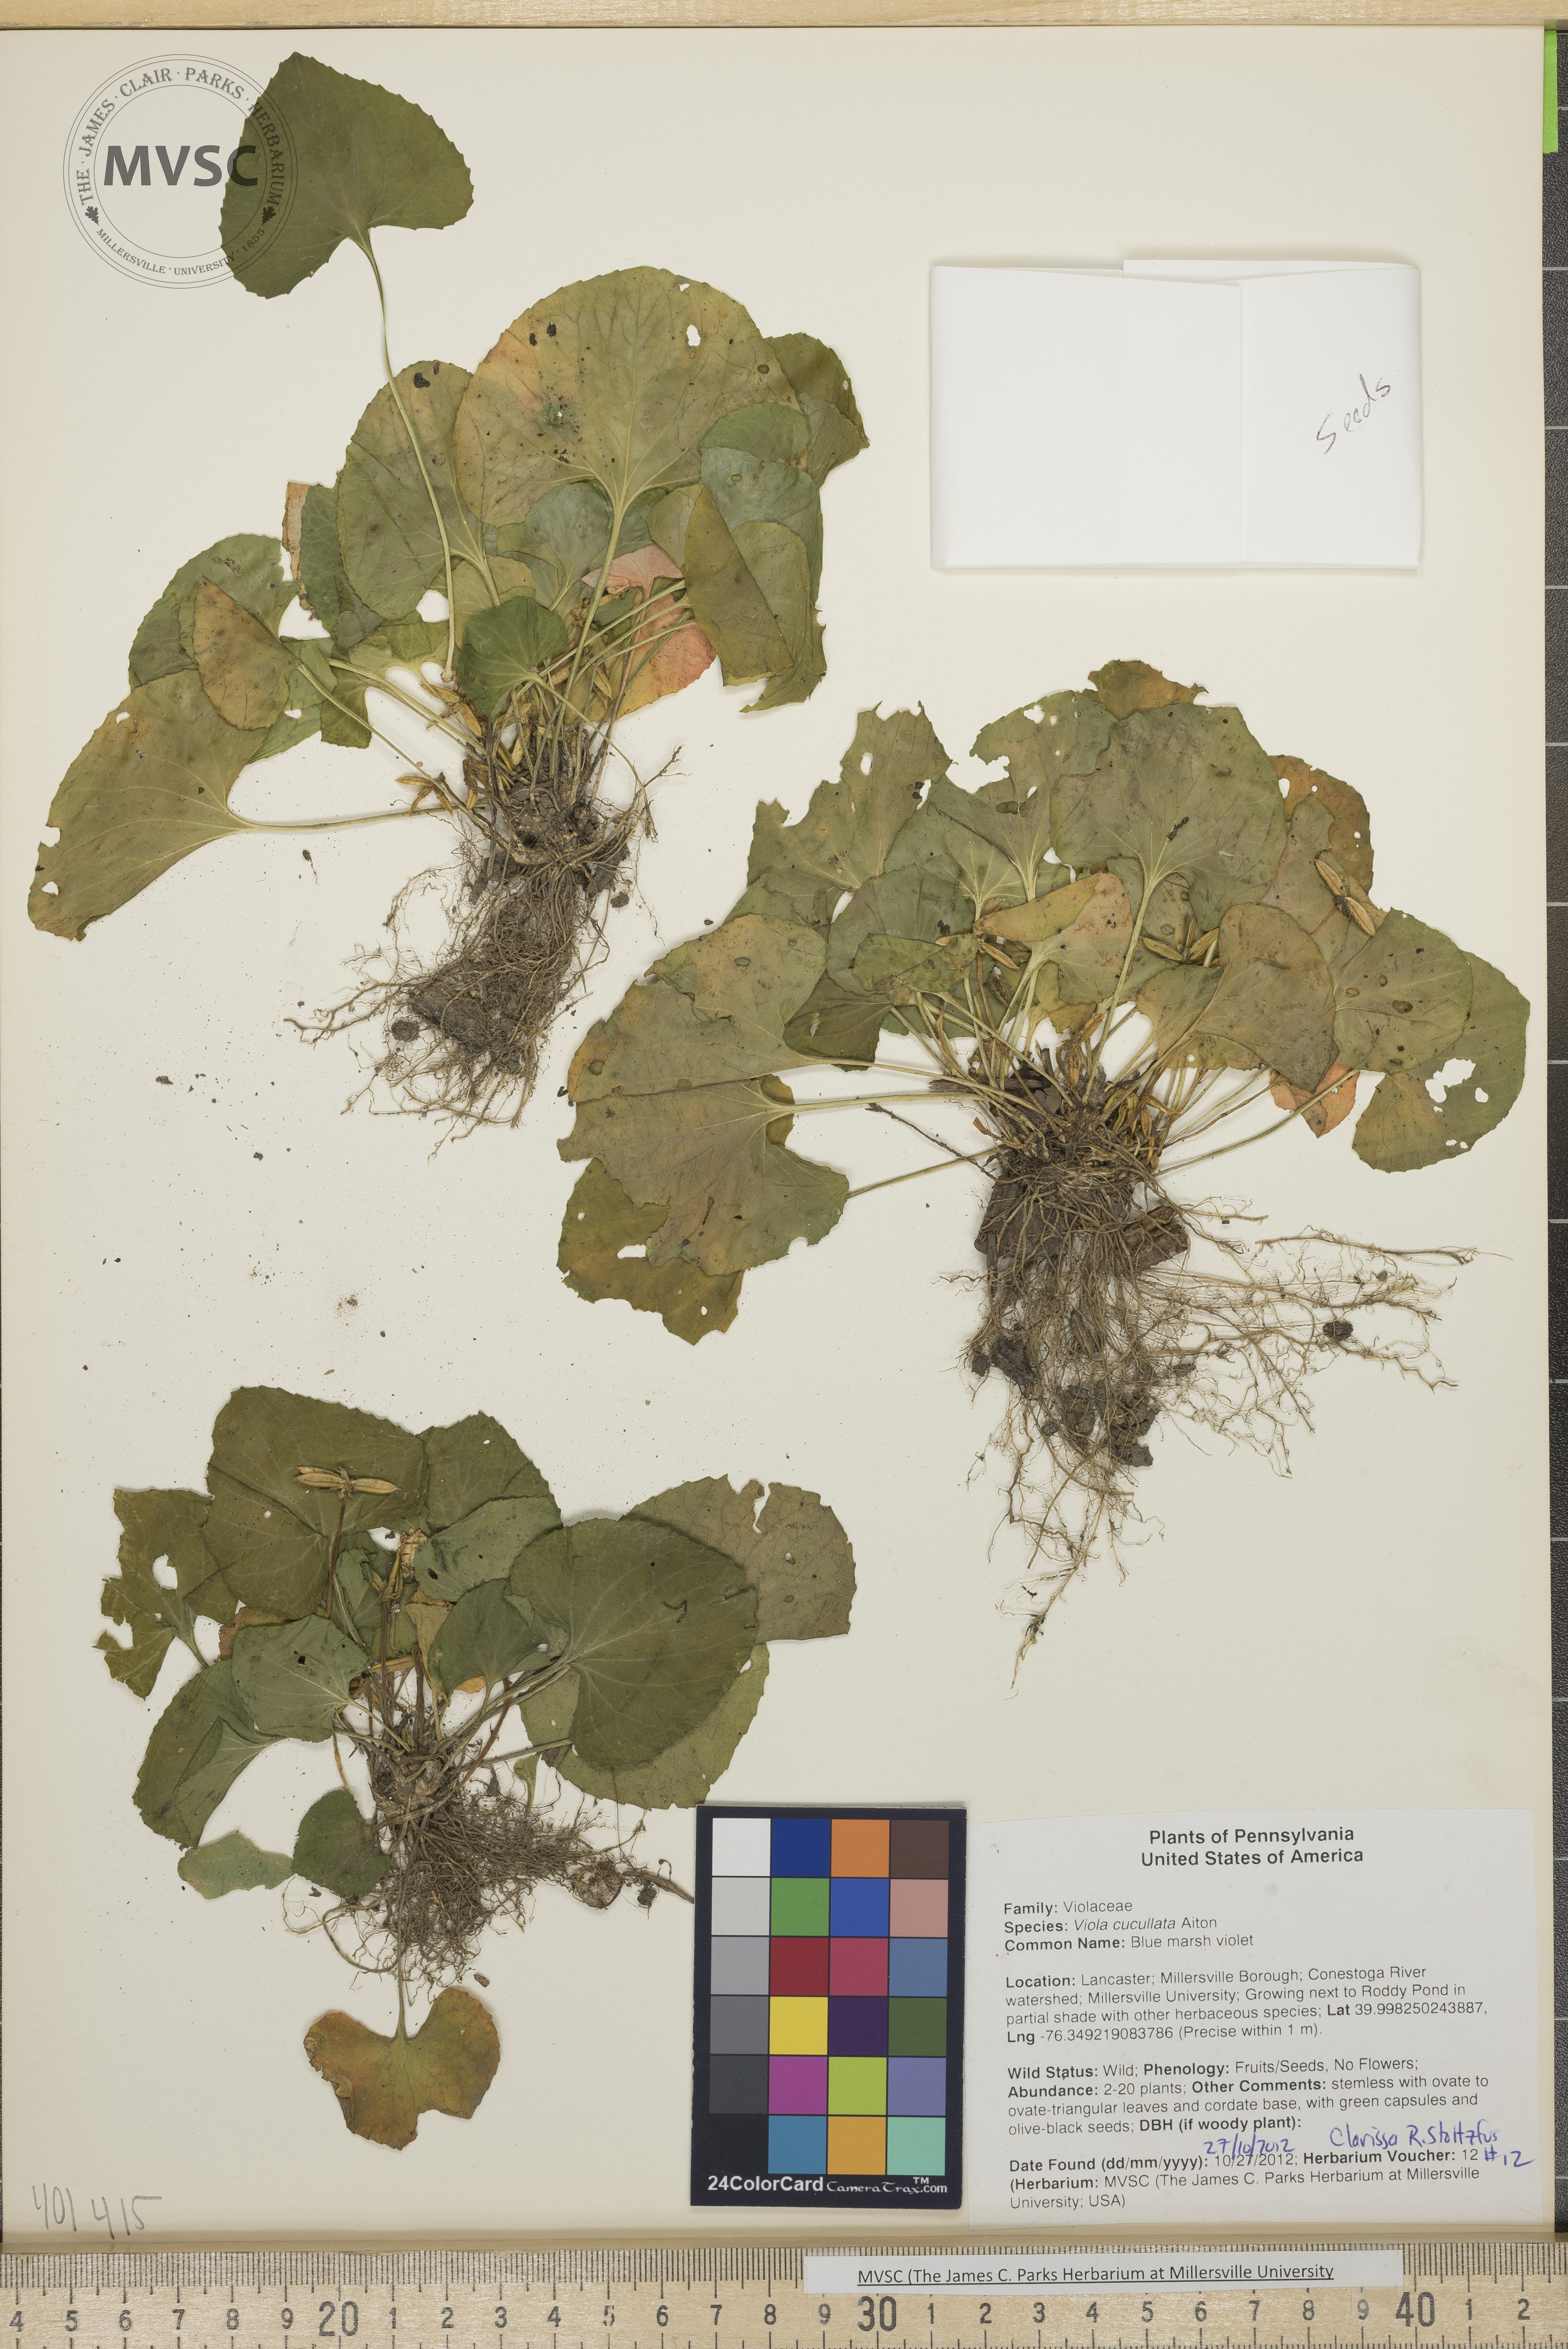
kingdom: Plantae
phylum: Tracheophyta
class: Magnoliopsida
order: Malpighiales
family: Violaceae
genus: Viola
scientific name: Viola sororia
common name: Blue marsh violet
